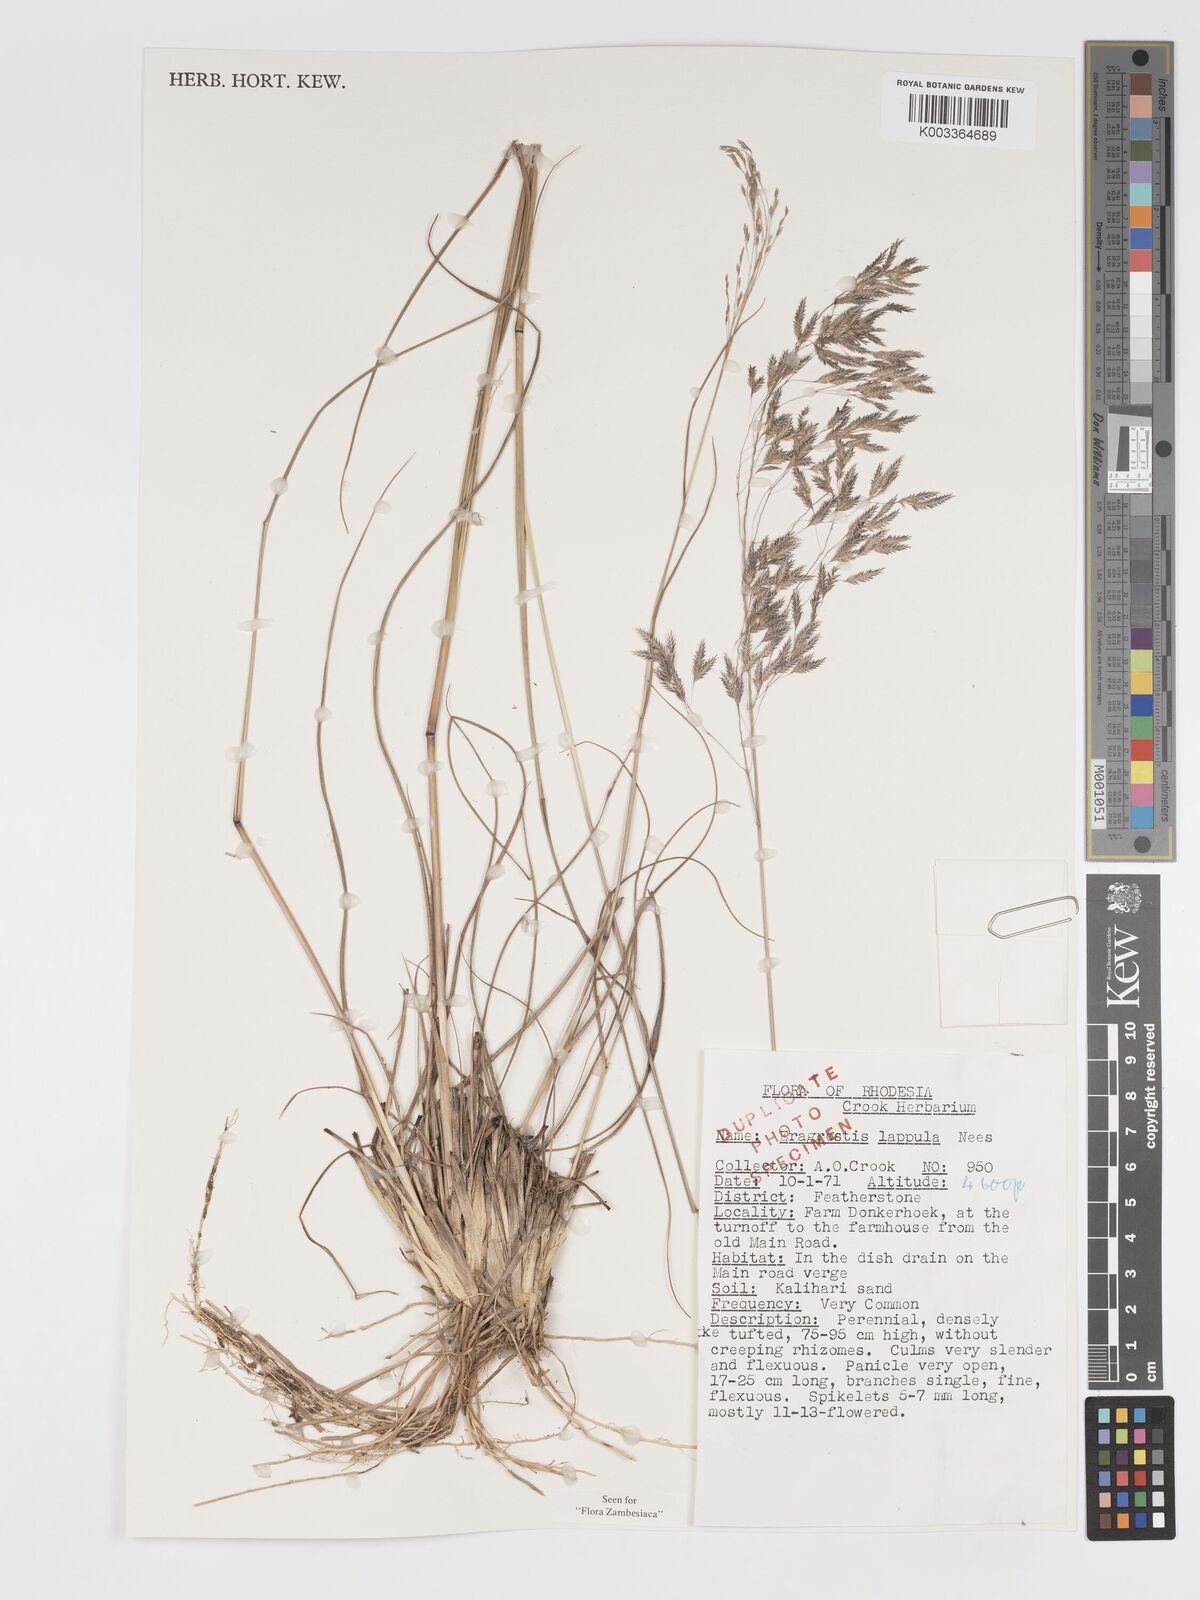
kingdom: Plantae
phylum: Tracheophyta
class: Liliopsida
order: Poales
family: Poaceae
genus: Eragrostis
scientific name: Eragrostis lappula
